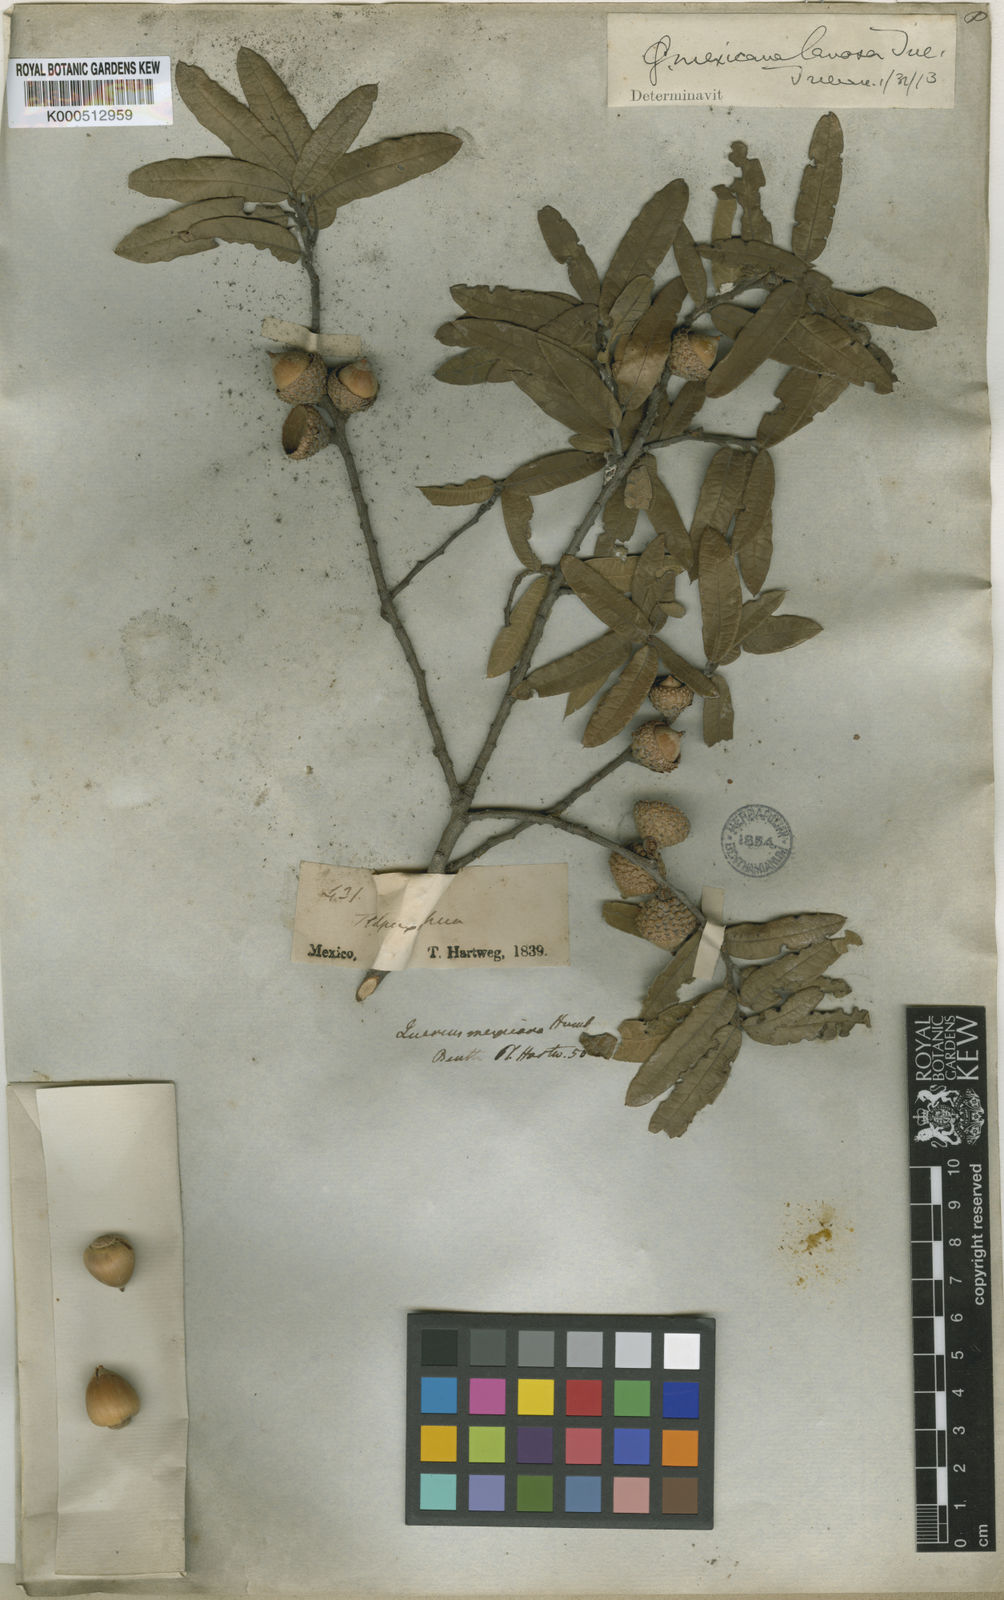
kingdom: Plantae
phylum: Tracheophyta
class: Magnoliopsida
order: Fagales
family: Fagaceae
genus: Quercus
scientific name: Quercus mexicana
